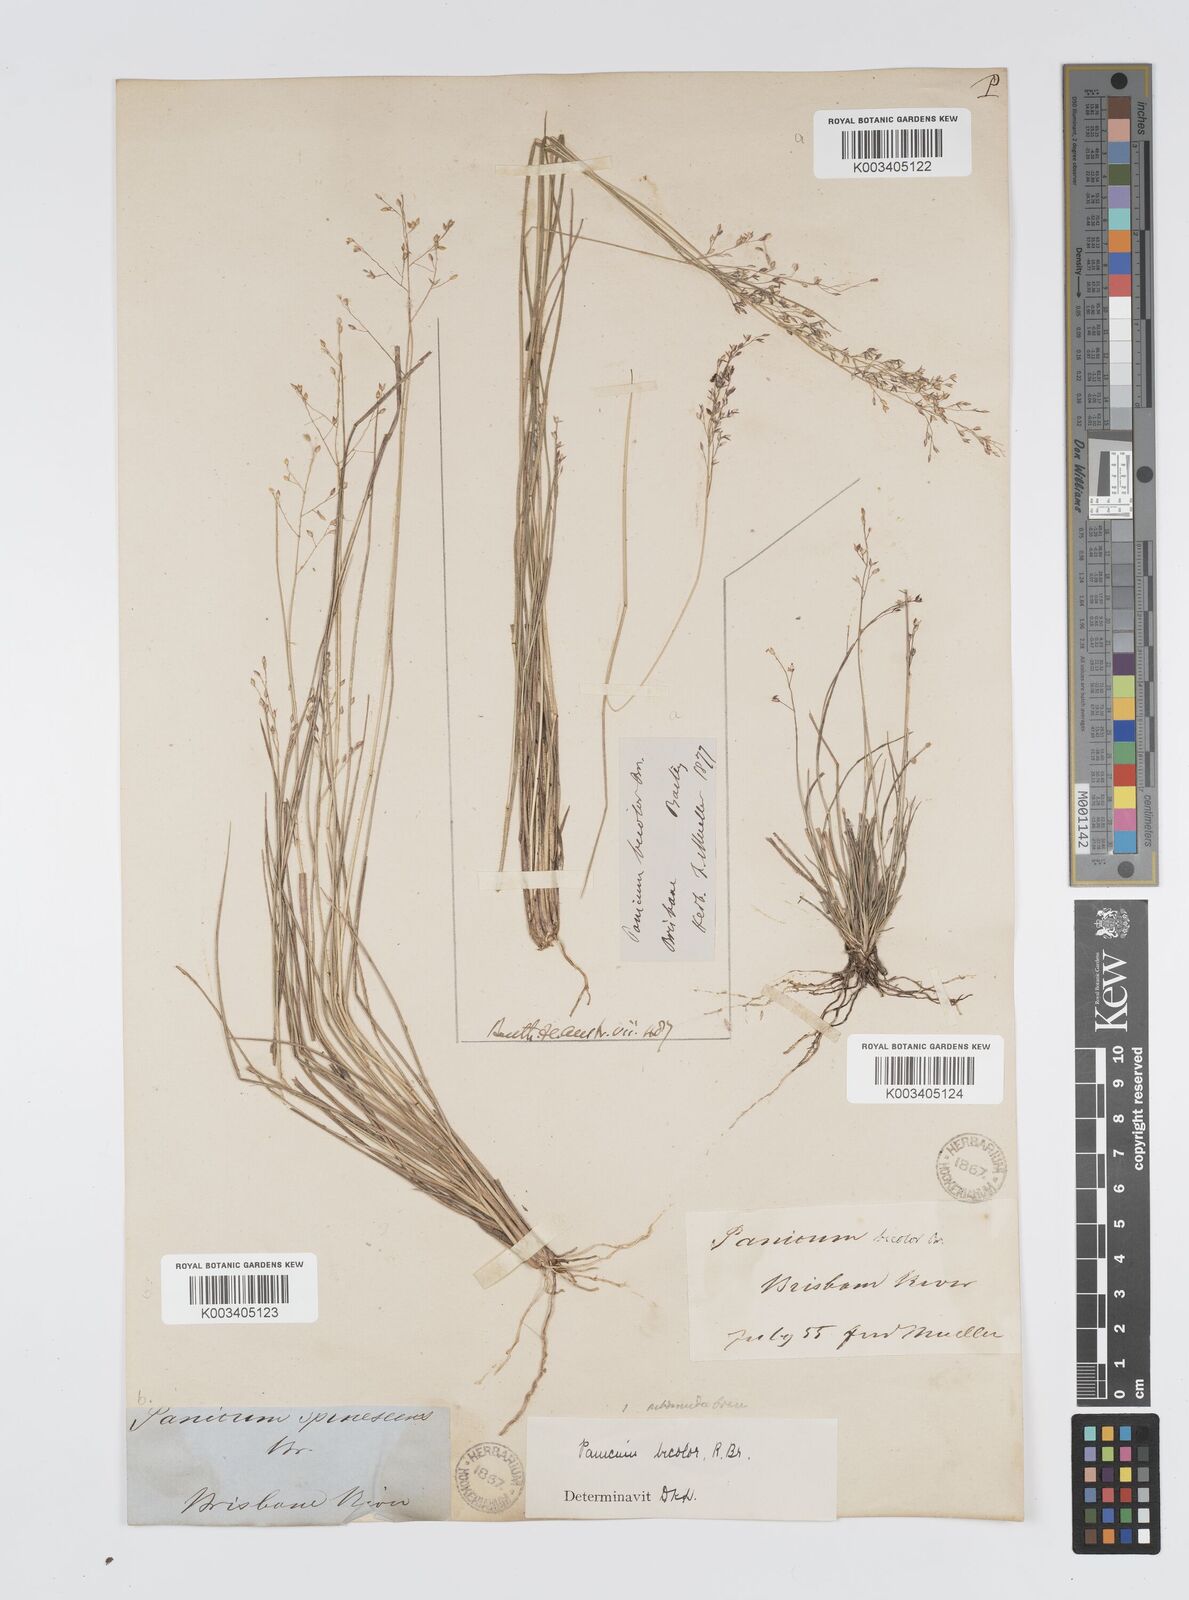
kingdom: Plantae
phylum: Tracheophyta
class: Liliopsida
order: Poales
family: Poaceae
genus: Panicum
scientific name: Panicum simile
